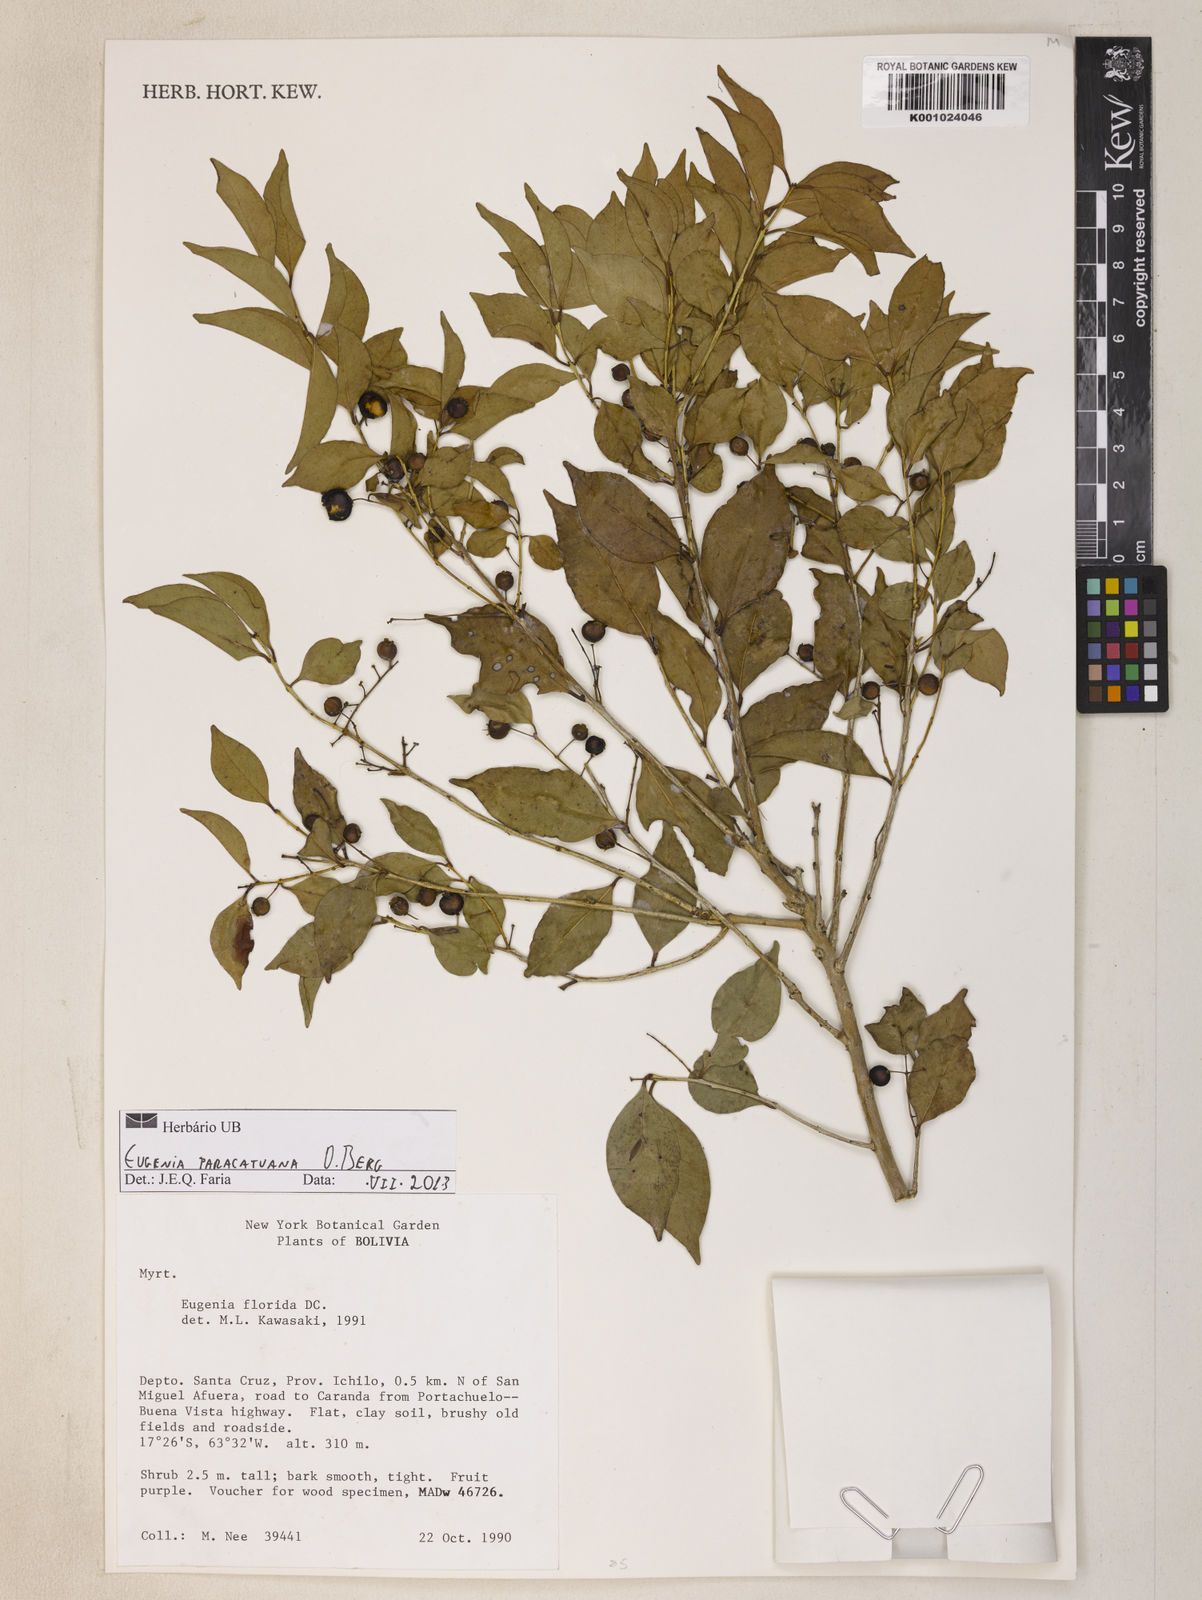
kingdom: Plantae
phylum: Tracheophyta
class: Magnoliopsida
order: Myrtales
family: Myrtaceae
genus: Eugenia
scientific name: Eugenia moraviana
